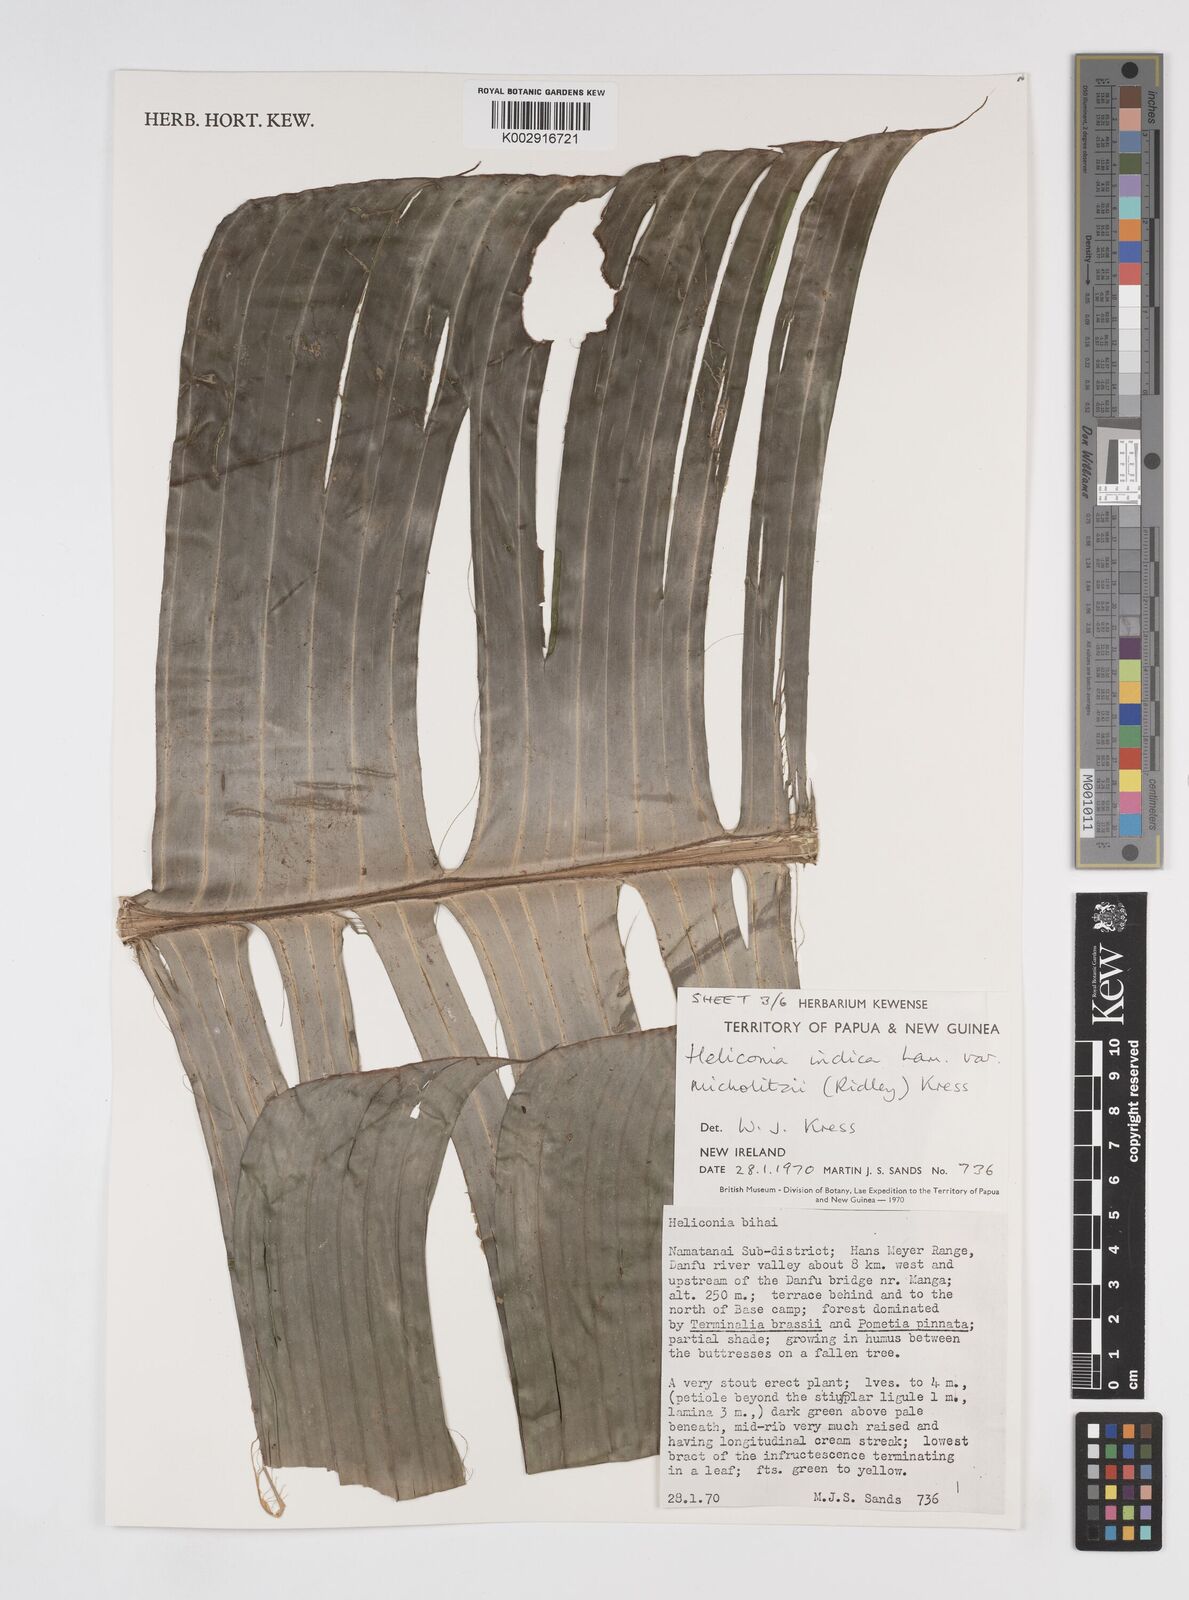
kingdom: Plantae
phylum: Tracheophyta
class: Liliopsida
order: Zingiberales
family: Heliconiaceae
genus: Heliconia
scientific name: Heliconia indica
